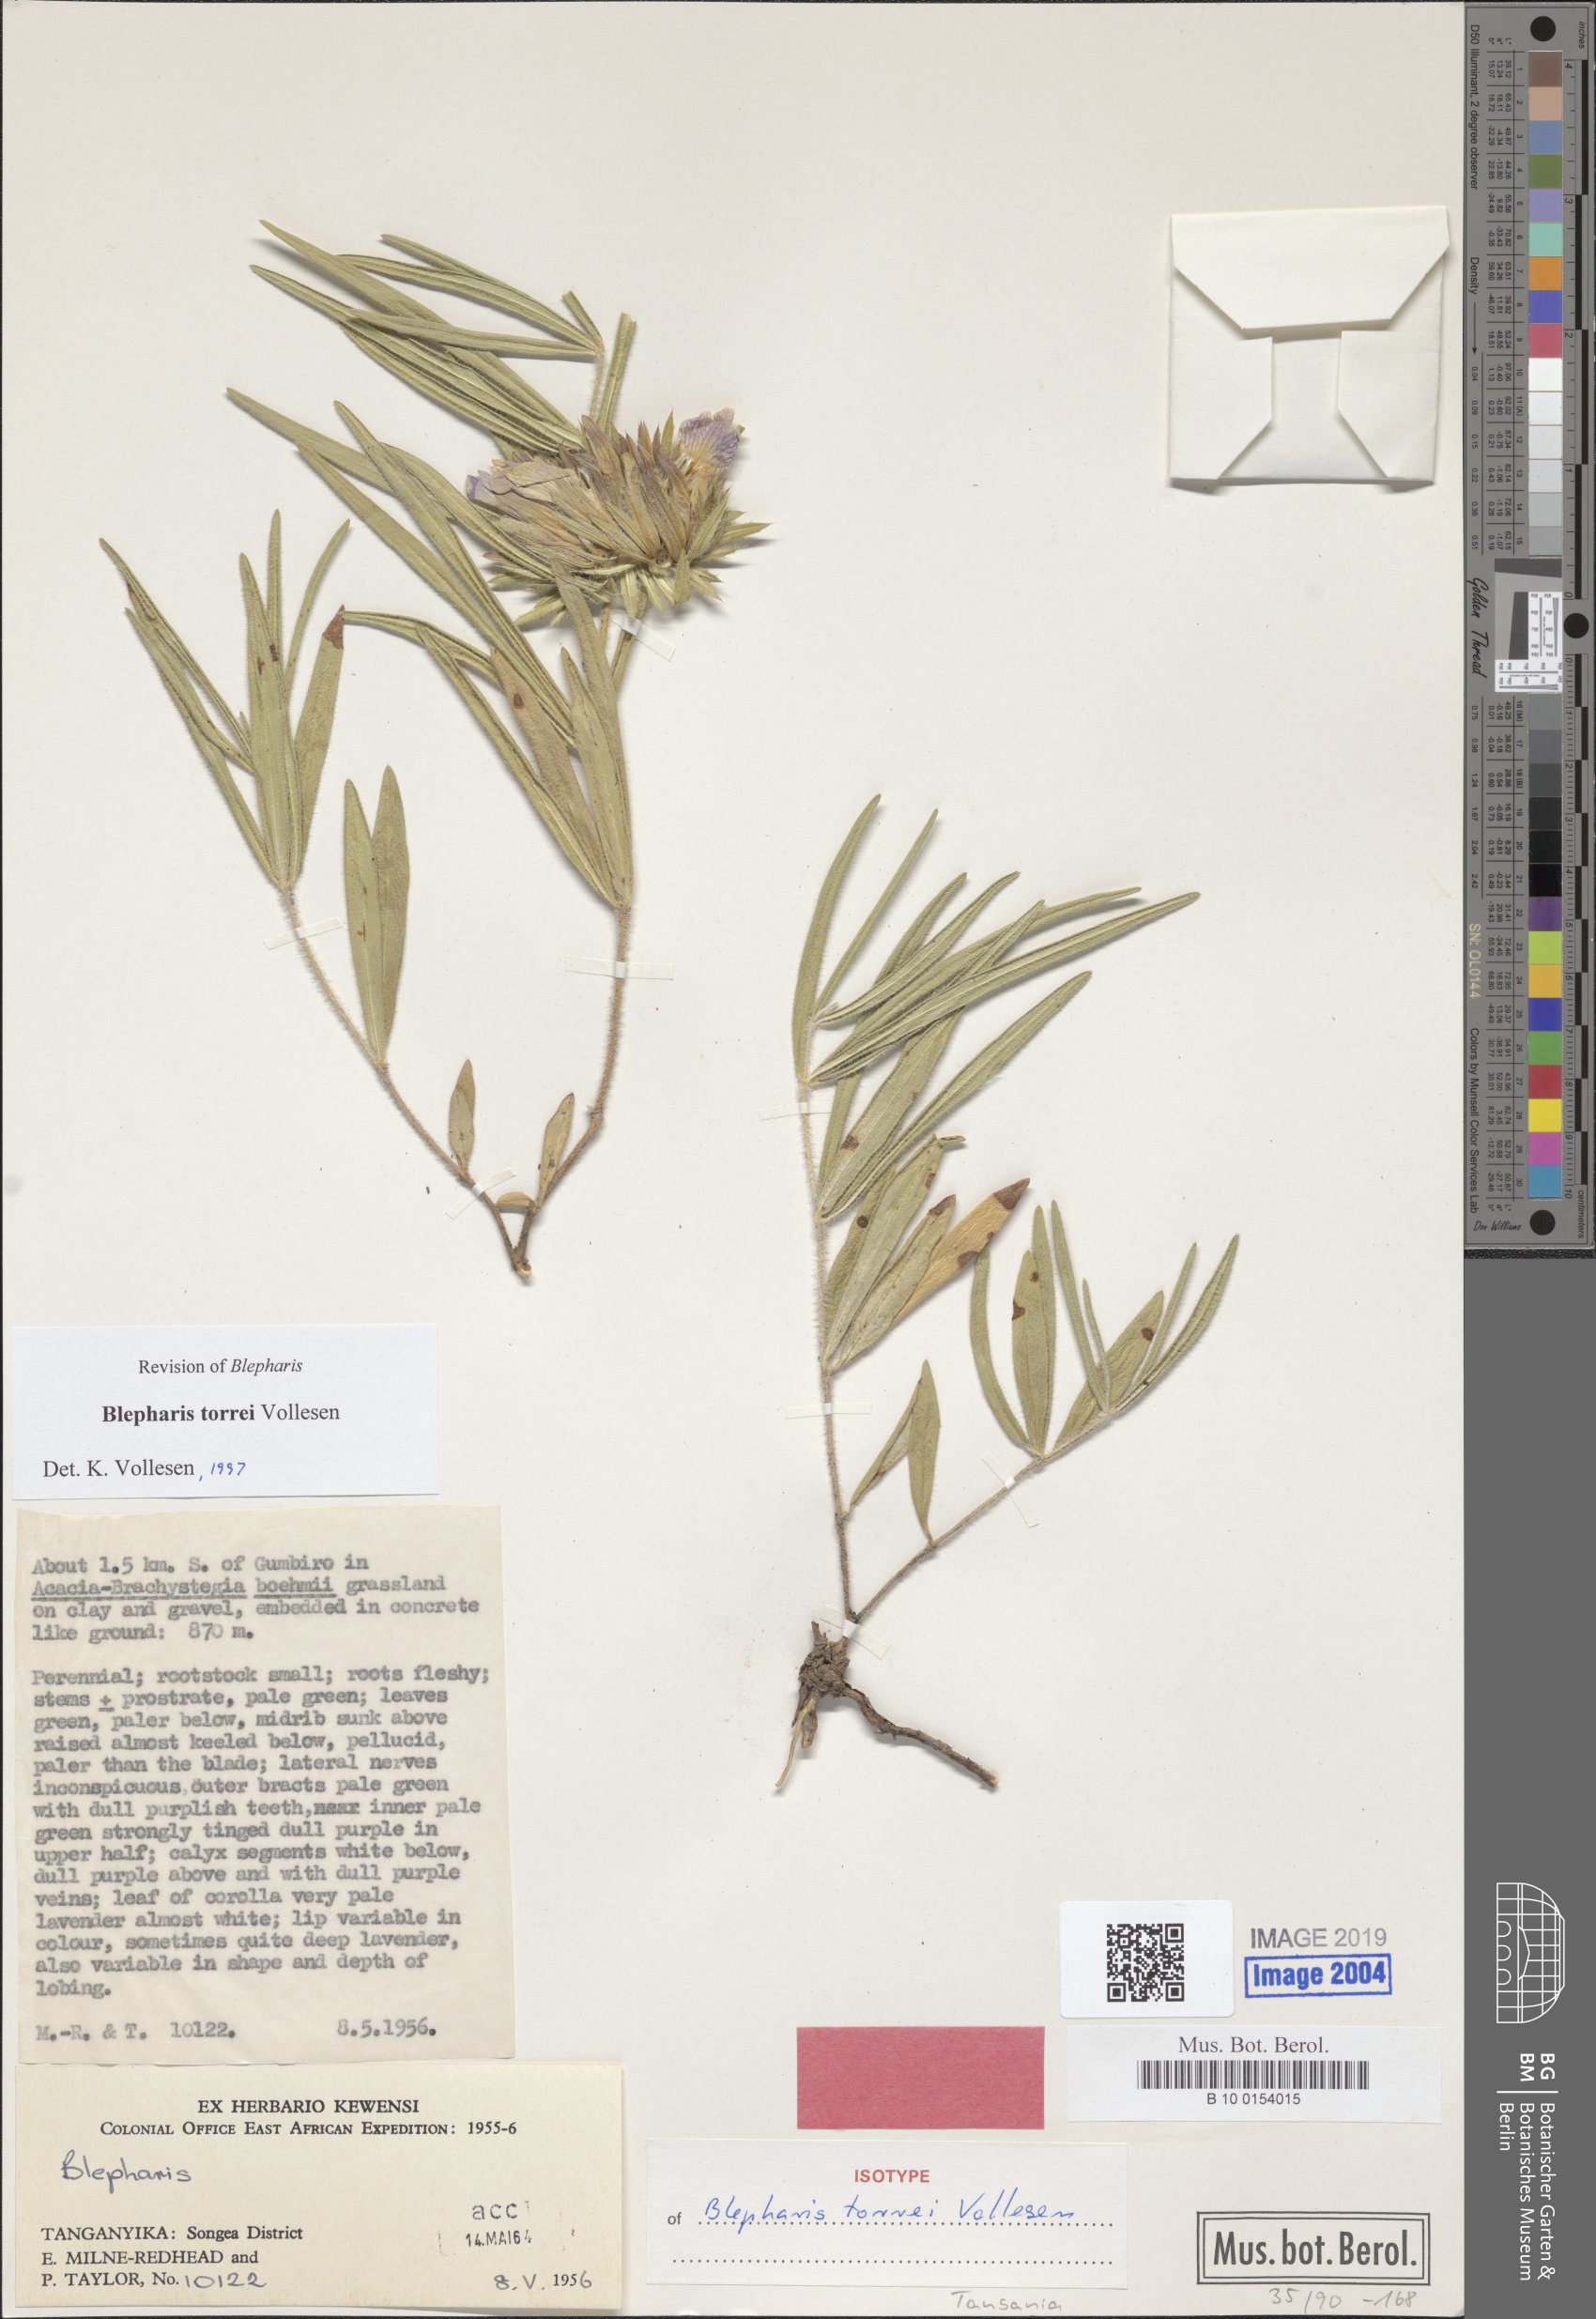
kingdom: Plantae
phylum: Tracheophyta
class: Magnoliopsida
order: Lamiales
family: Acanthaceae
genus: Blepharis
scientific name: Blepharis torrei
